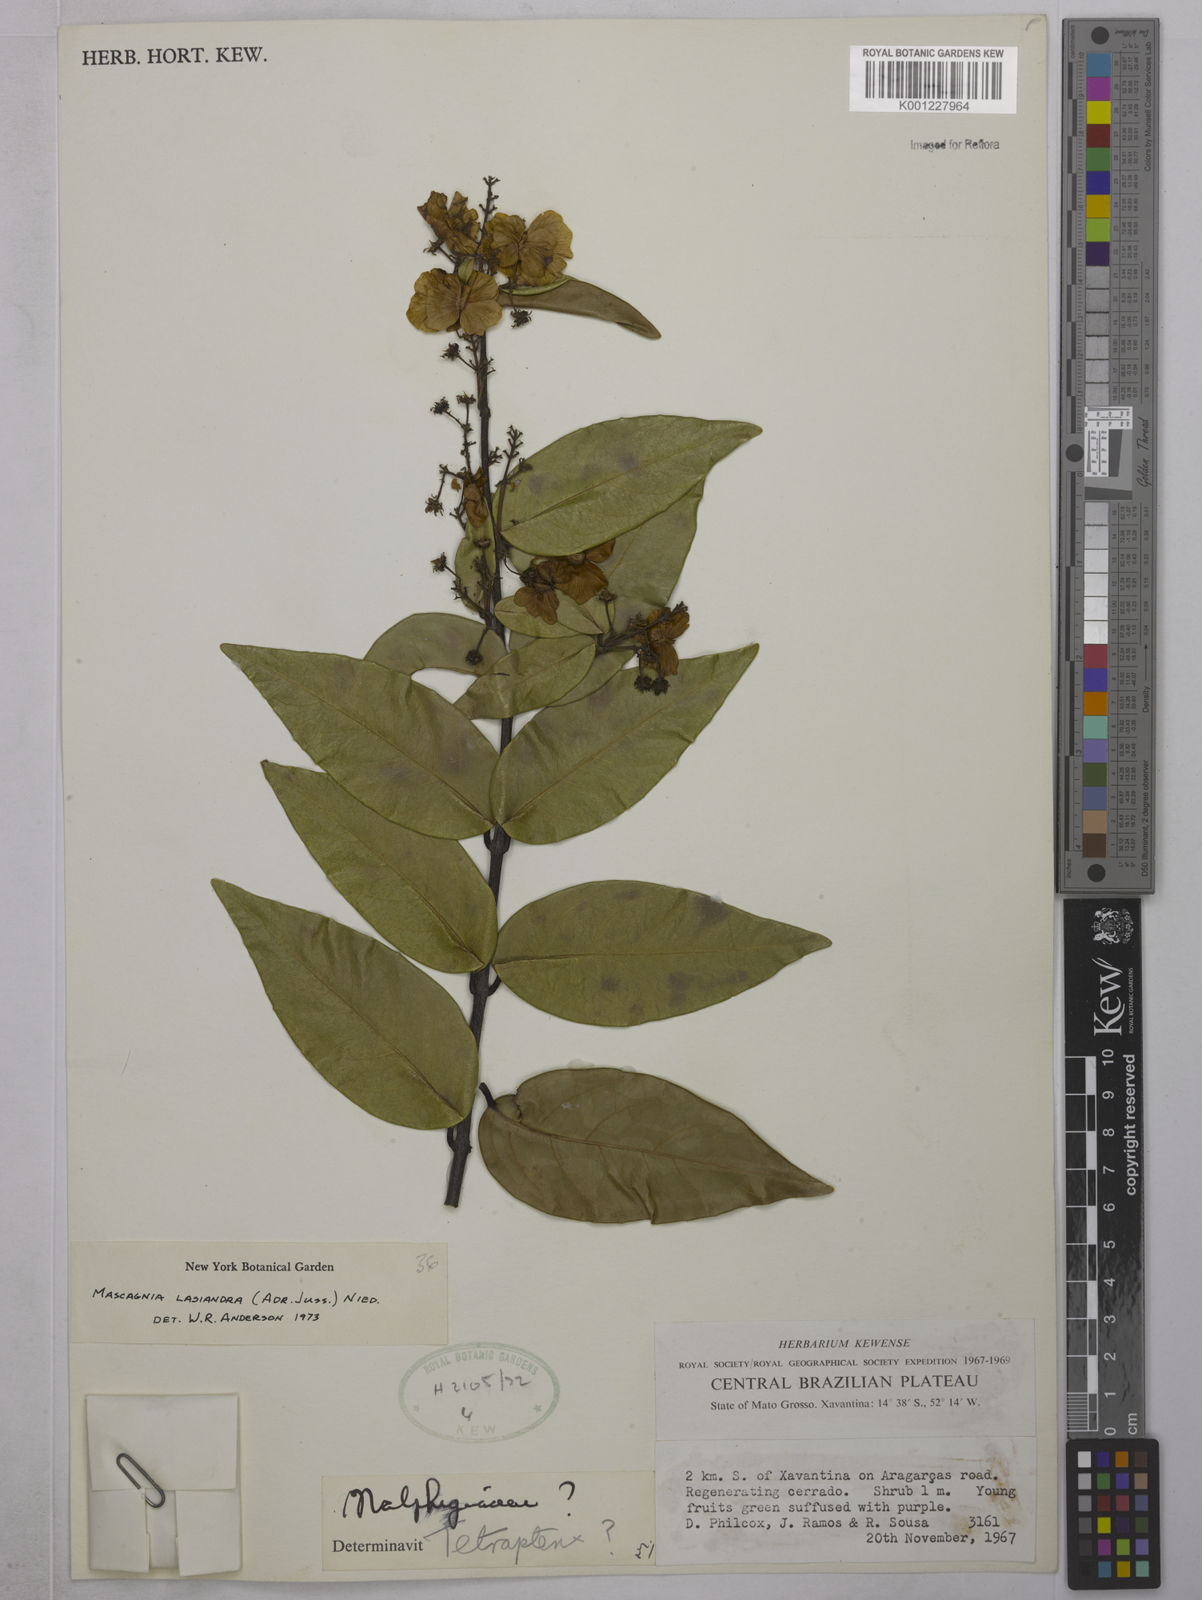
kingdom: Plantae
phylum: Tracheophyta
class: Magnoliopsida
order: Malpighiales
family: Malpighiaceae
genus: Niedenzuella
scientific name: Niedenzuella lasiandra
